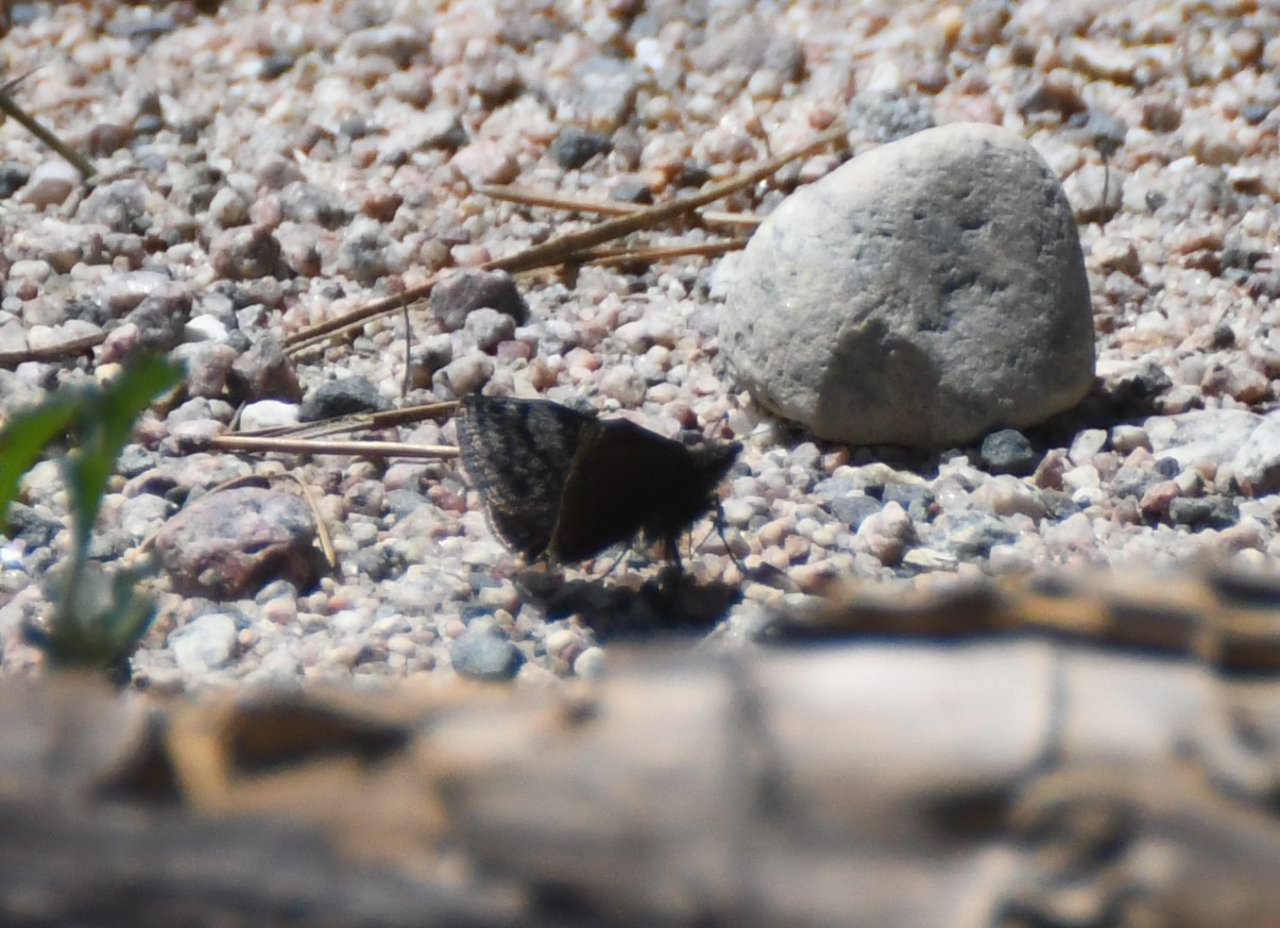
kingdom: Animalia
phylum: Arthropoda
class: Insecta
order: Lepidoptera
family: Hesperiidae
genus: Erynnis
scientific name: Erynnis icelus
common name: Dreamy Duskywing
